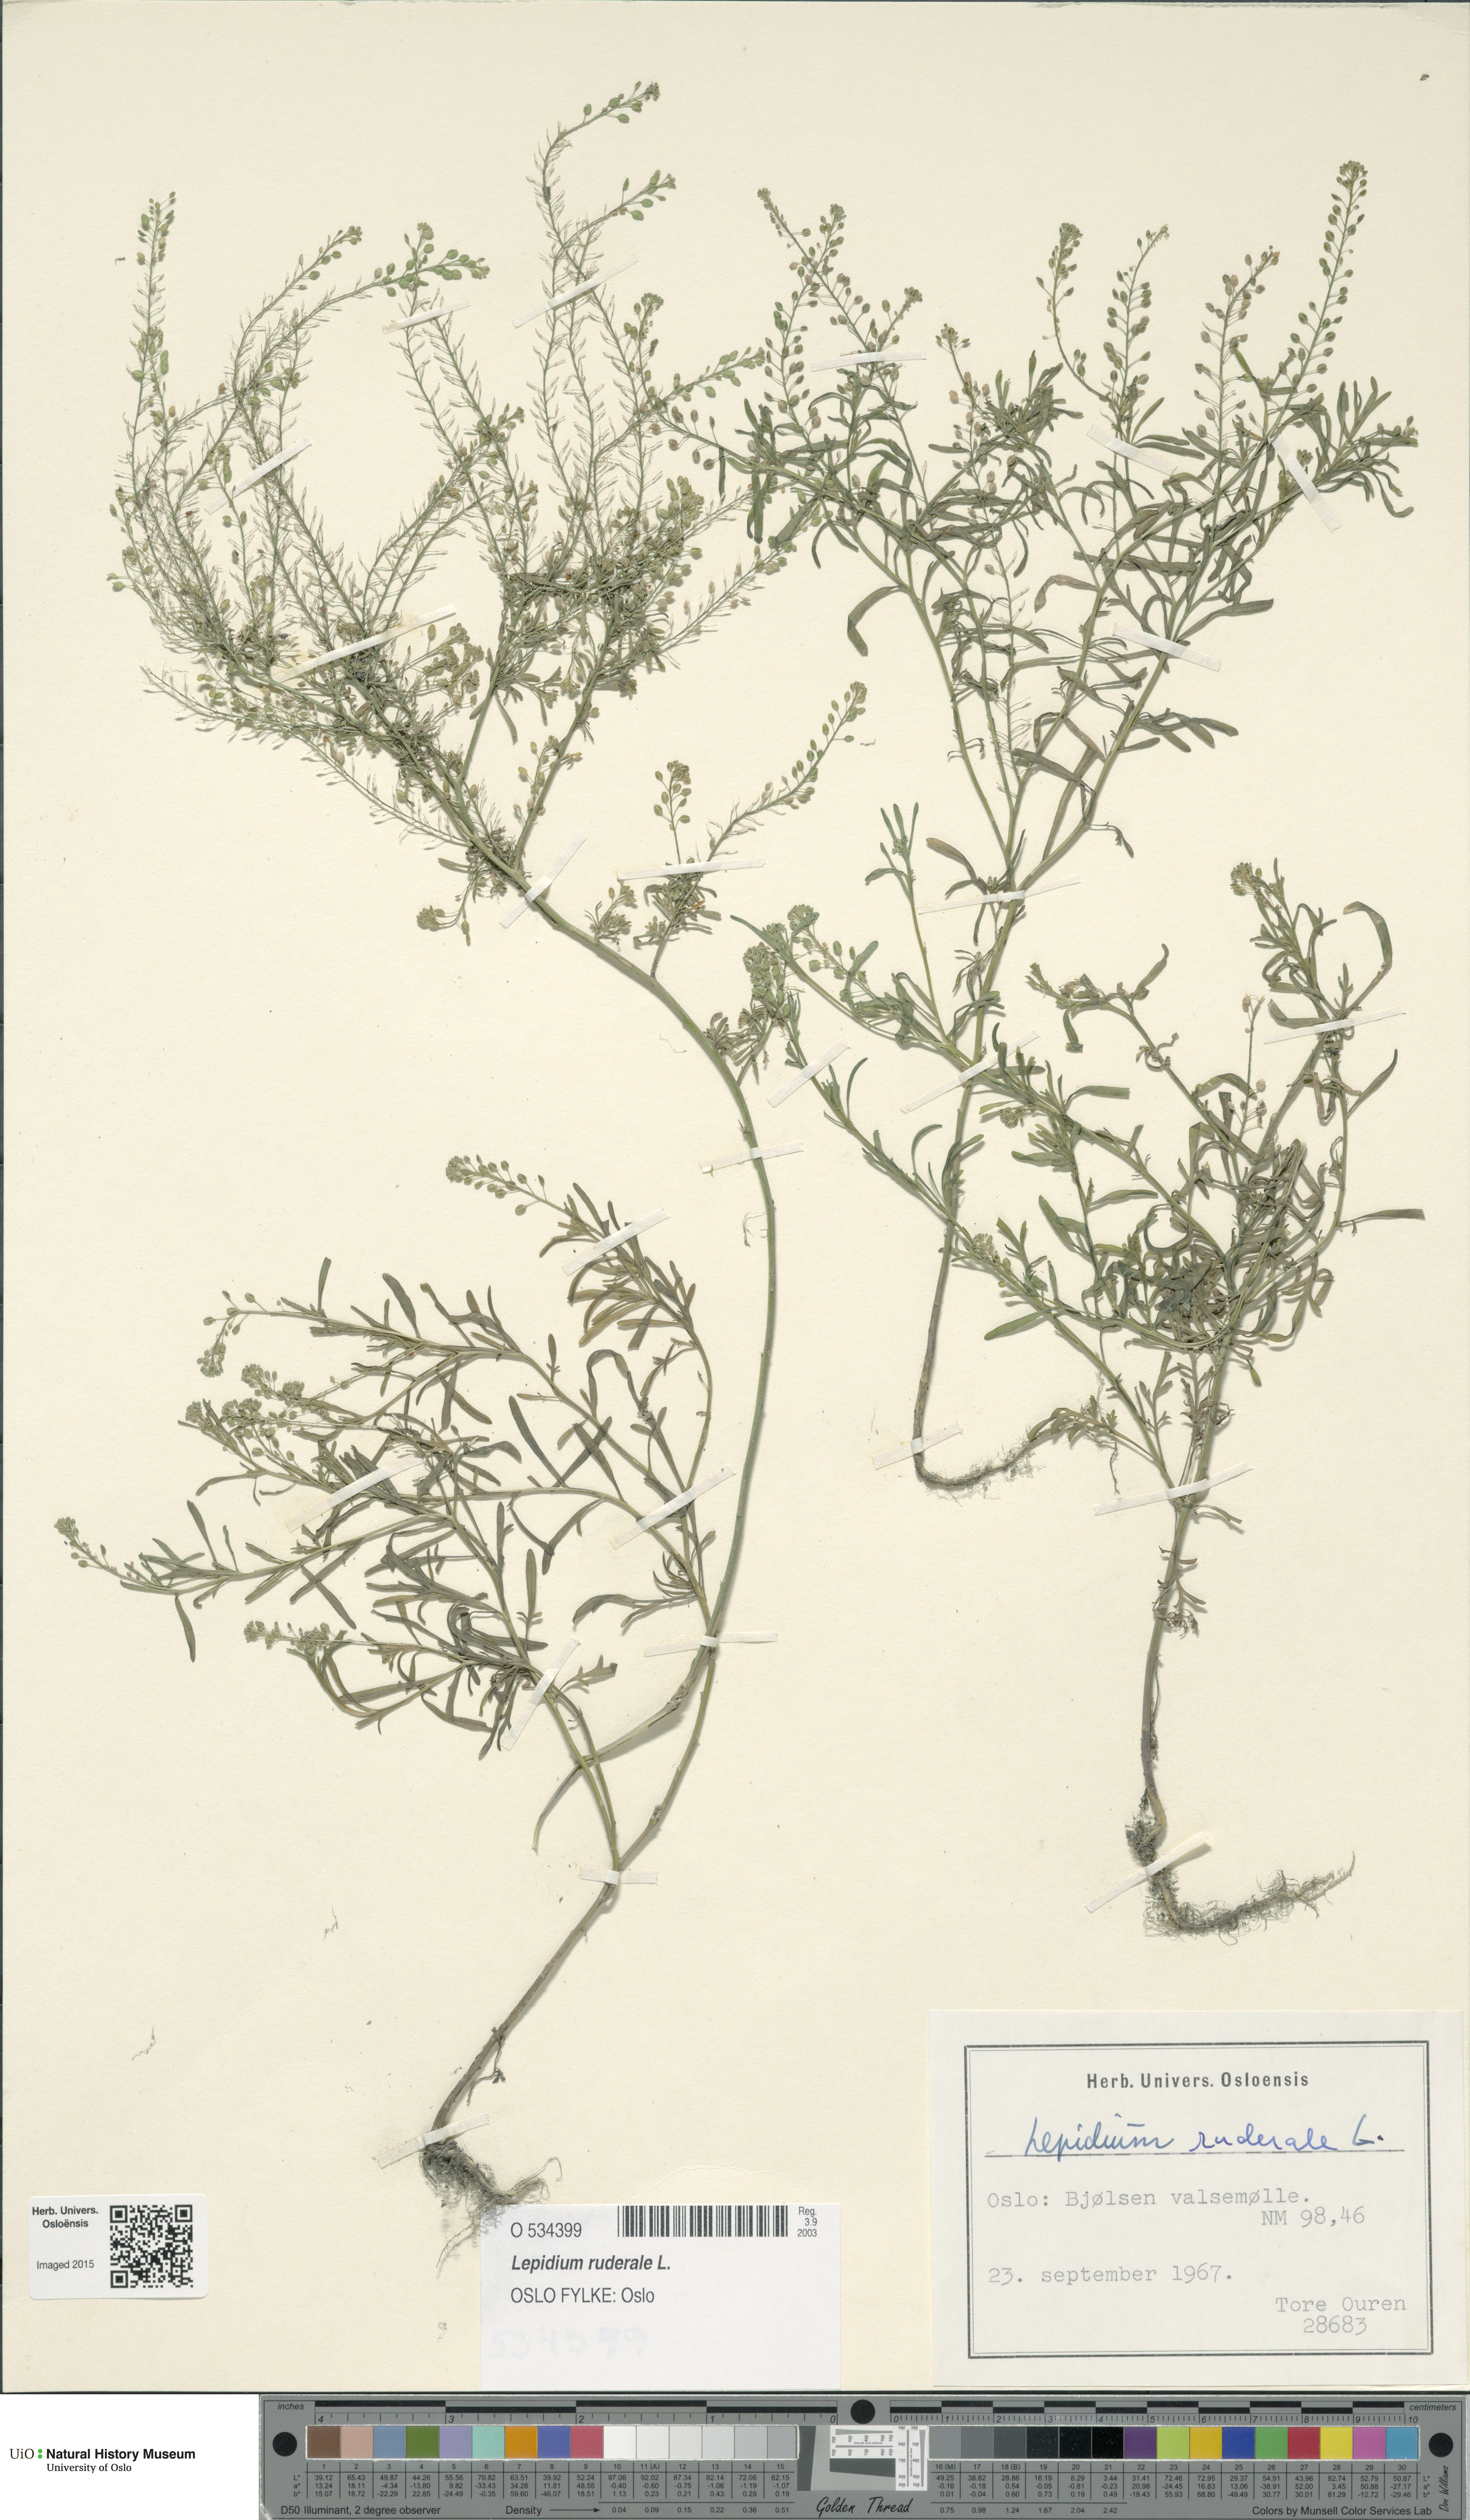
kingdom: Plantae
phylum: Tracheophyta
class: Magnoliopsida
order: Brassicales
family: Brassicaceae
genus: Lepidium
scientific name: Lepidium ruderale
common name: Narrow-leaved pepperwort
